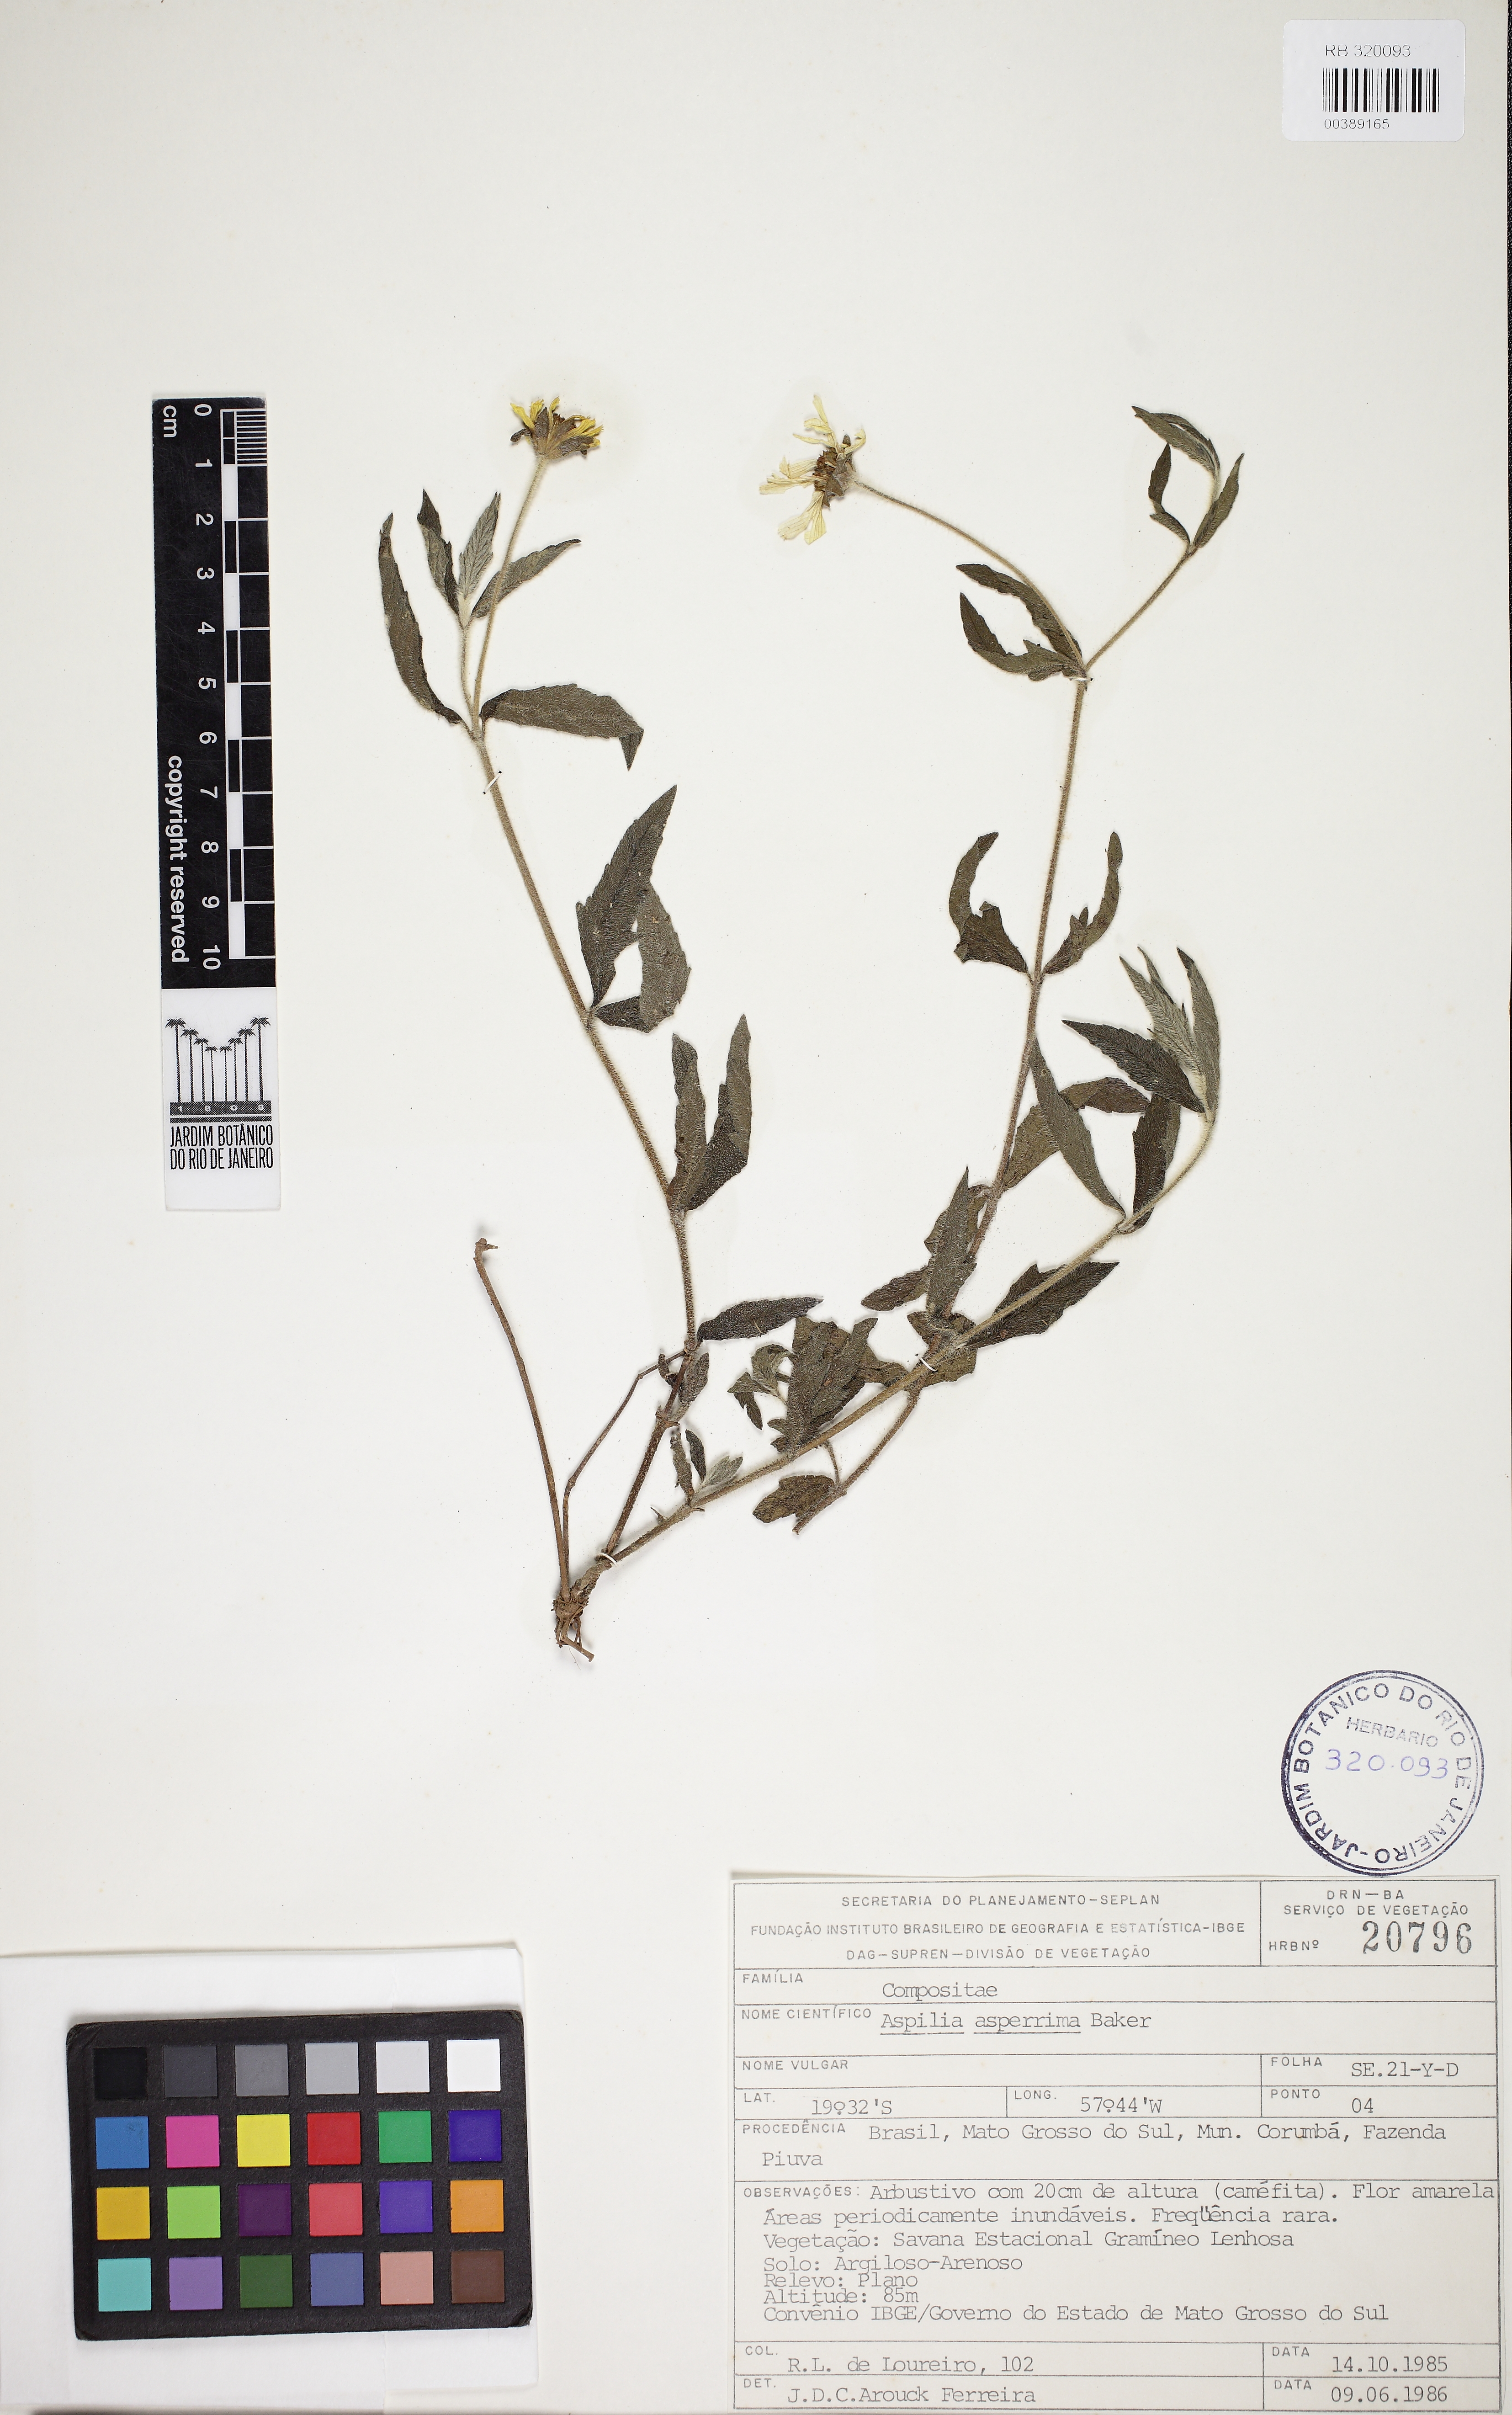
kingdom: Plantae
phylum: Tracheophyta
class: Magnoliopsida
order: Asterales
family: Asteraceae
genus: Wedelia
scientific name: Wedelia gardneri
